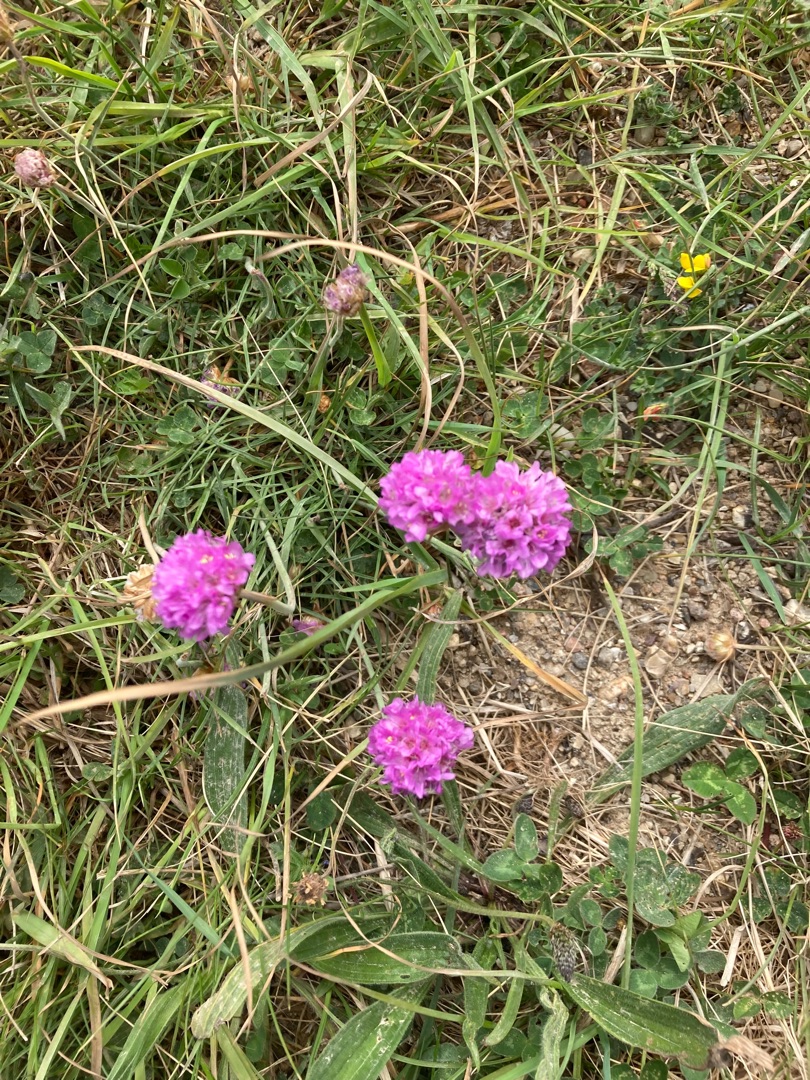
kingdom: Plantae
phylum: Tracheophyta
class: Magnoliopsida
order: Caryophyllales
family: Plumbaginaceae
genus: Armeria
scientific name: Armeria maritima
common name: Engelskgræs
